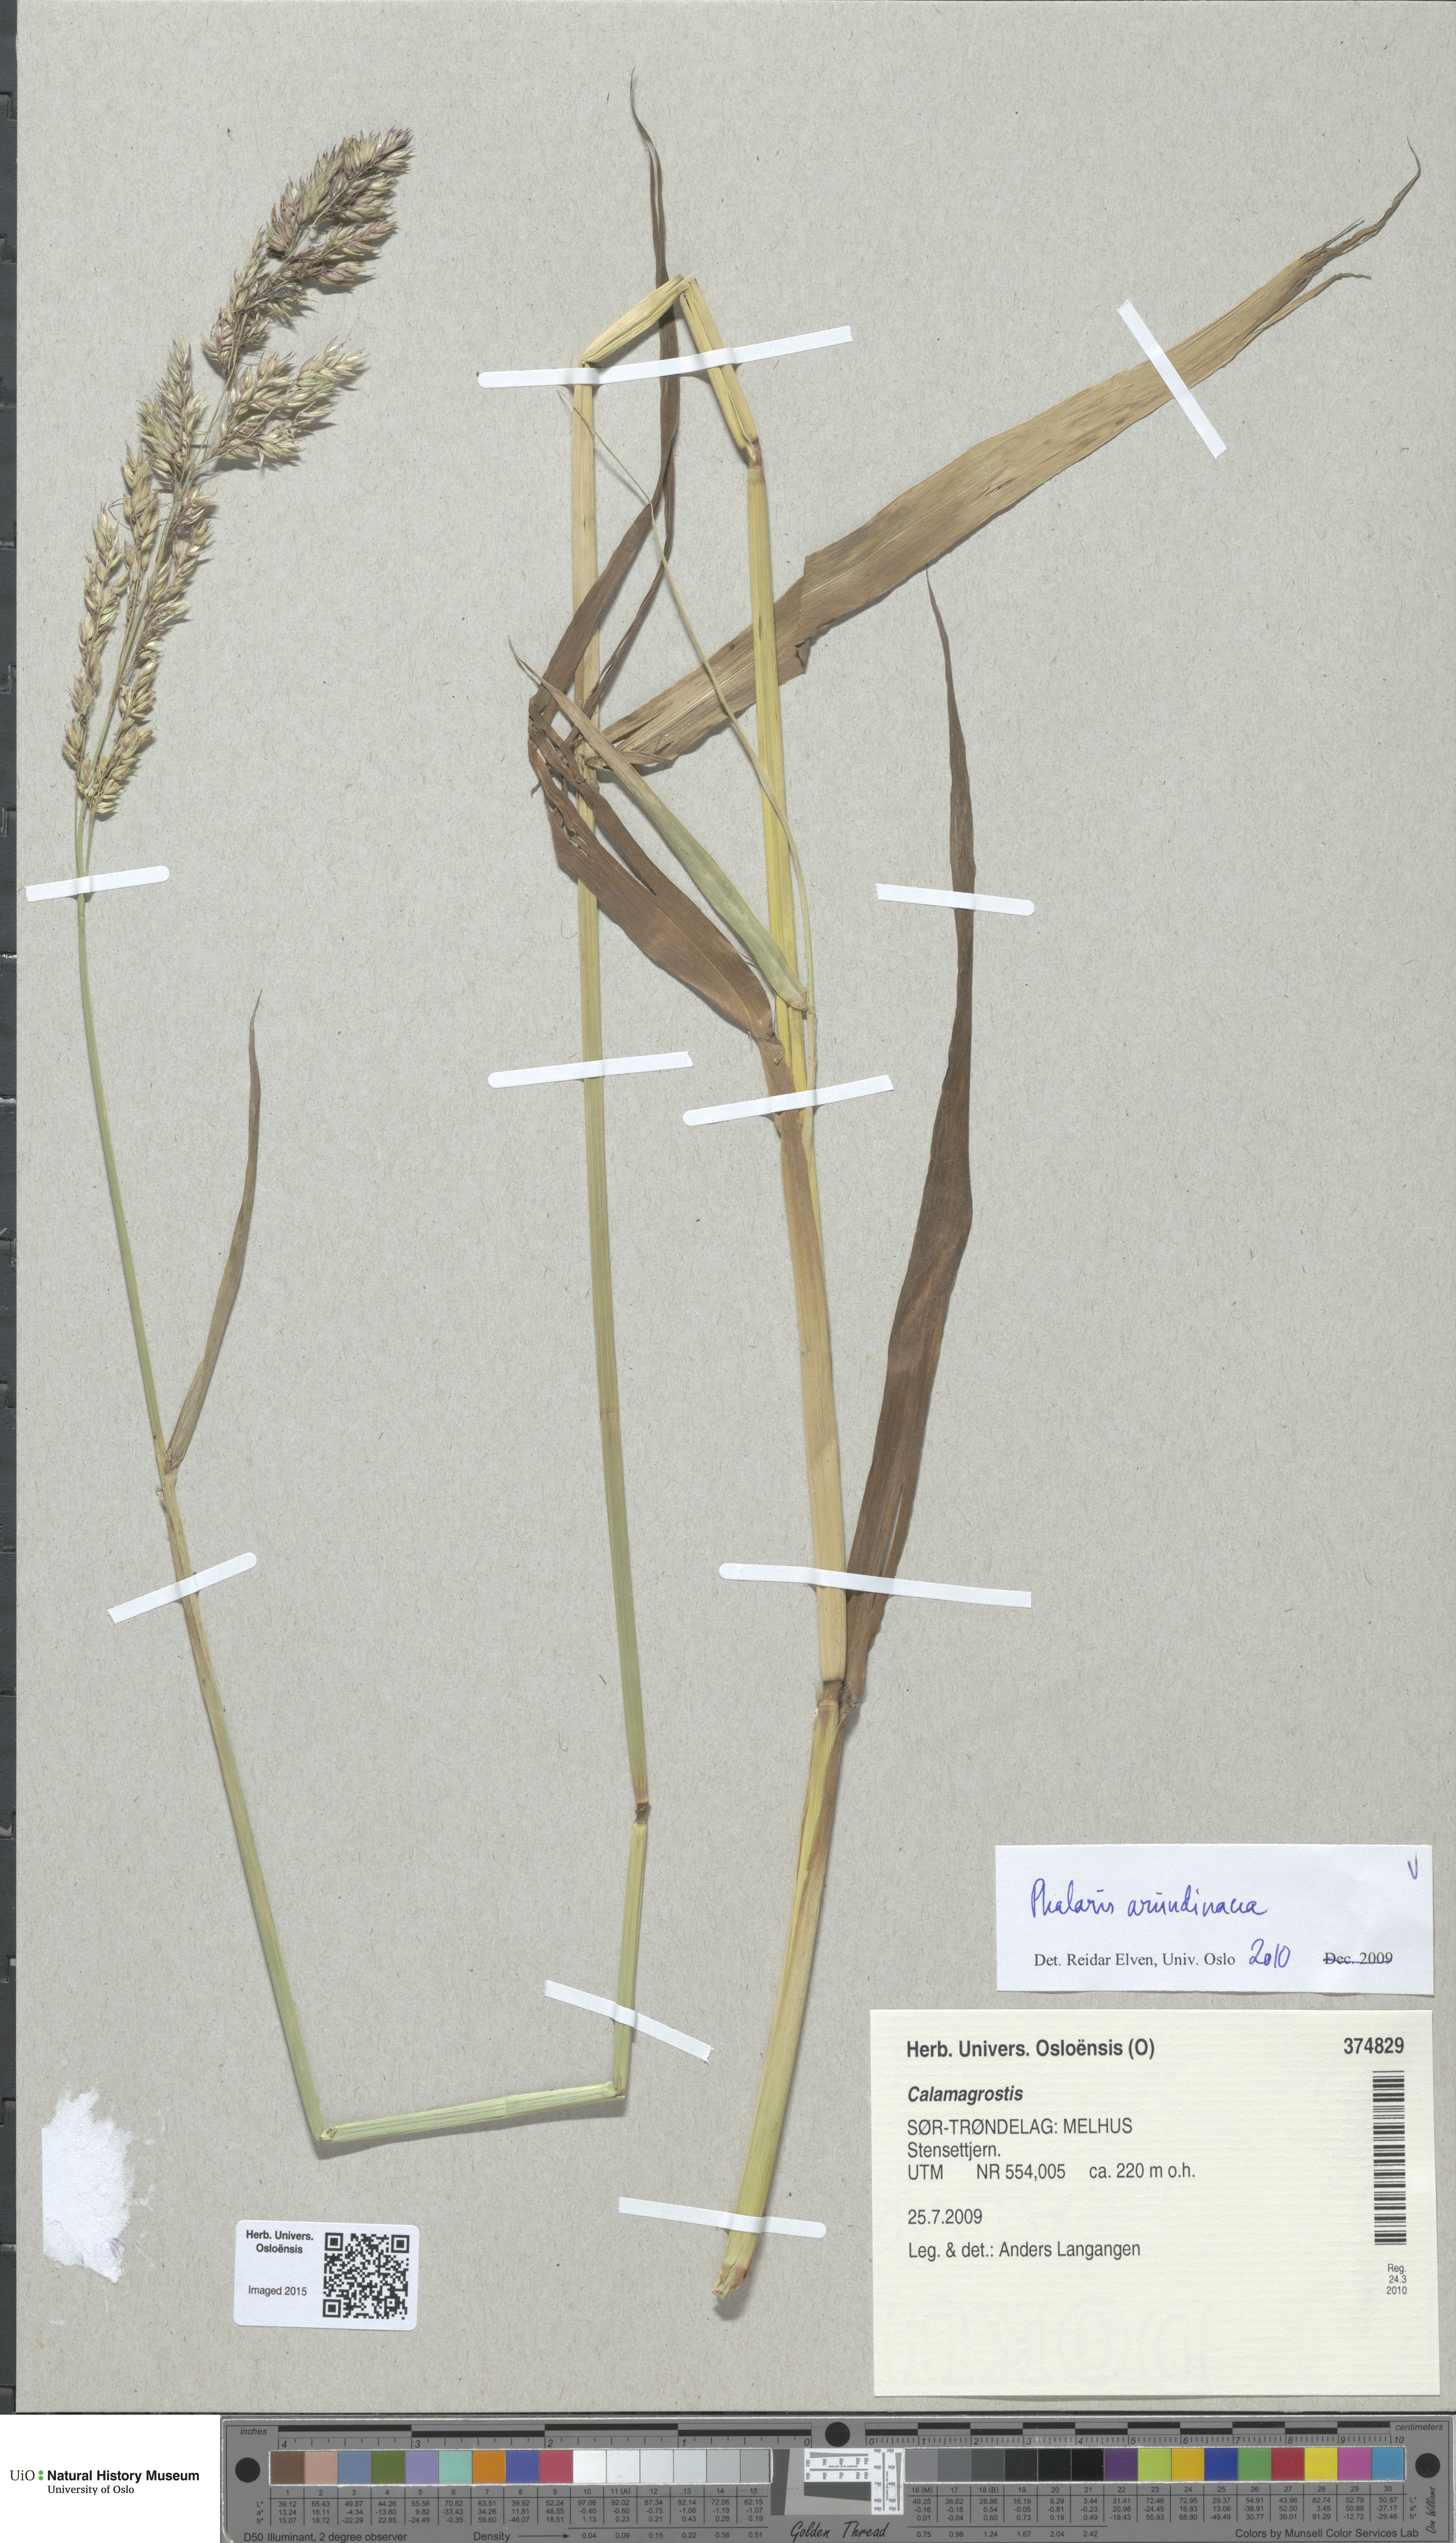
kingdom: Plantae
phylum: Tracheophyta
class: Liliopsida
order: Poales
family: Poaceae
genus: Phalaris
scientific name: Phalaris arundinacea
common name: Reed canary-grass
